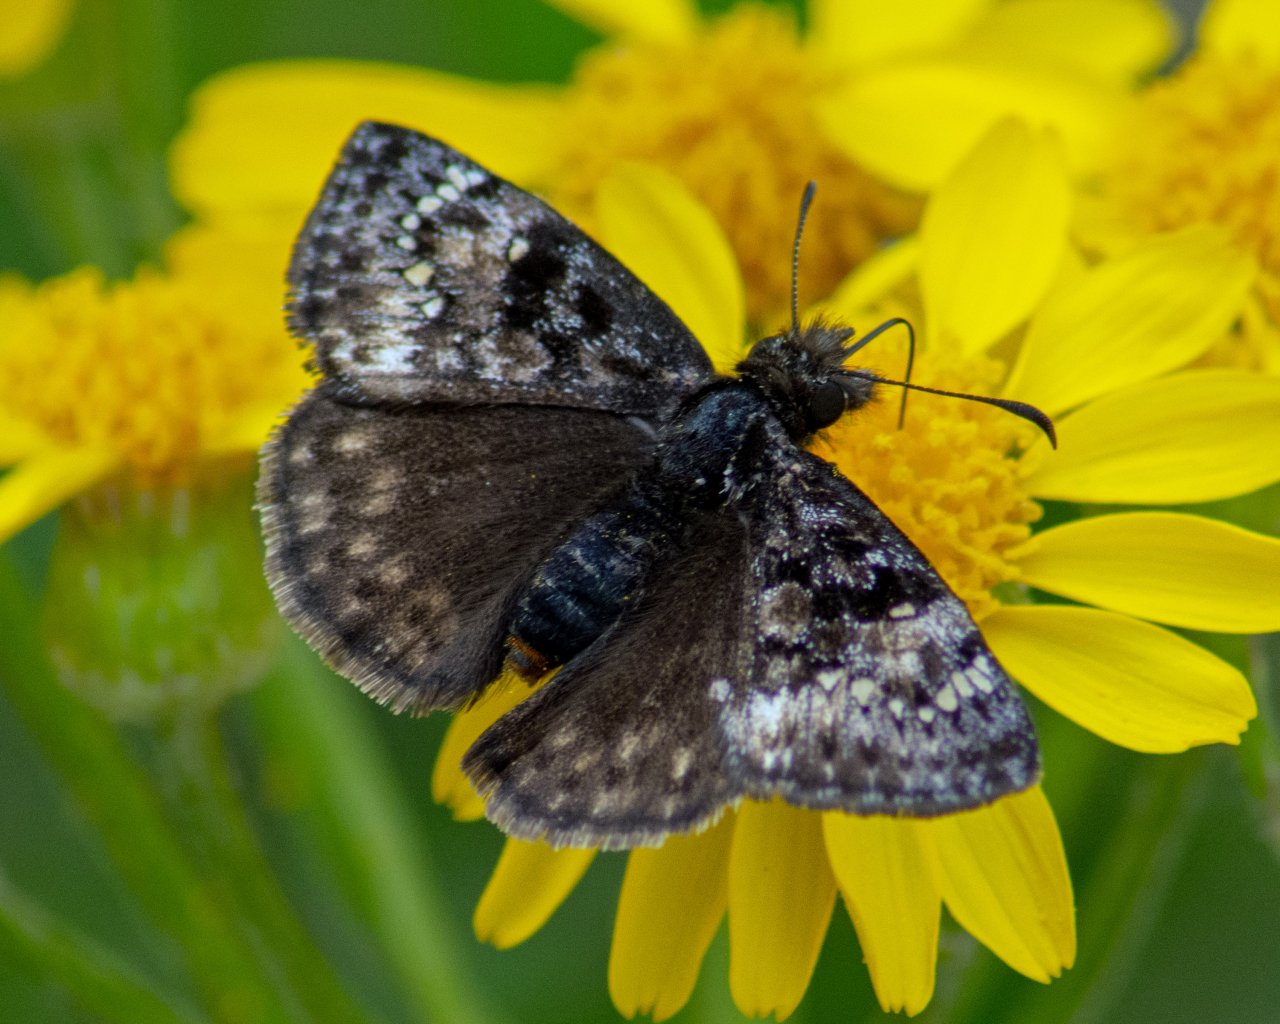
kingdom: Animalia
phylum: Arthropoda
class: Insecta
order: Lepidoptera
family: Hesperiidae
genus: Gesta
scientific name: Gesta
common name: Juvenal's Duskywing
